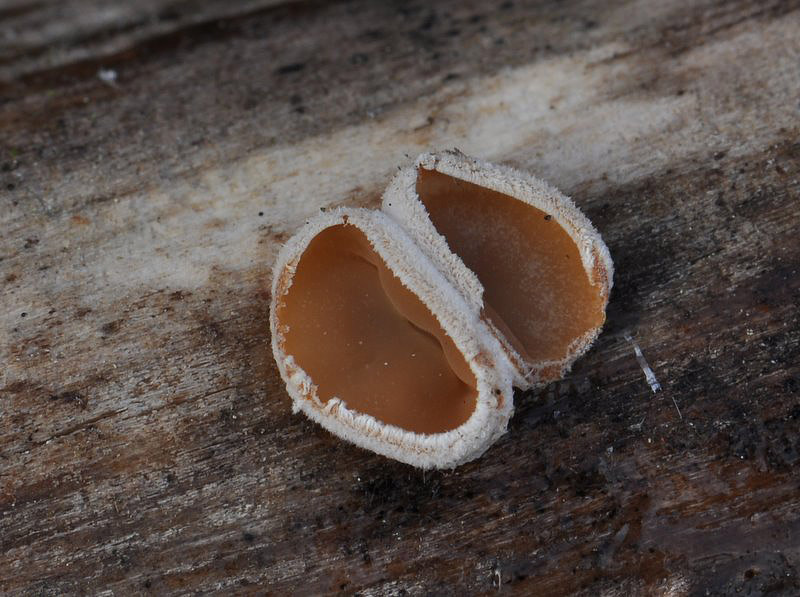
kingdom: Fungi
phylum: Basidiomycota
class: Agaricomycetes
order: Agaricales
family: Schizophyllaceae
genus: Schizophyllum
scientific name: Schizophyllum amplum
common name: poppel-hængeøre
